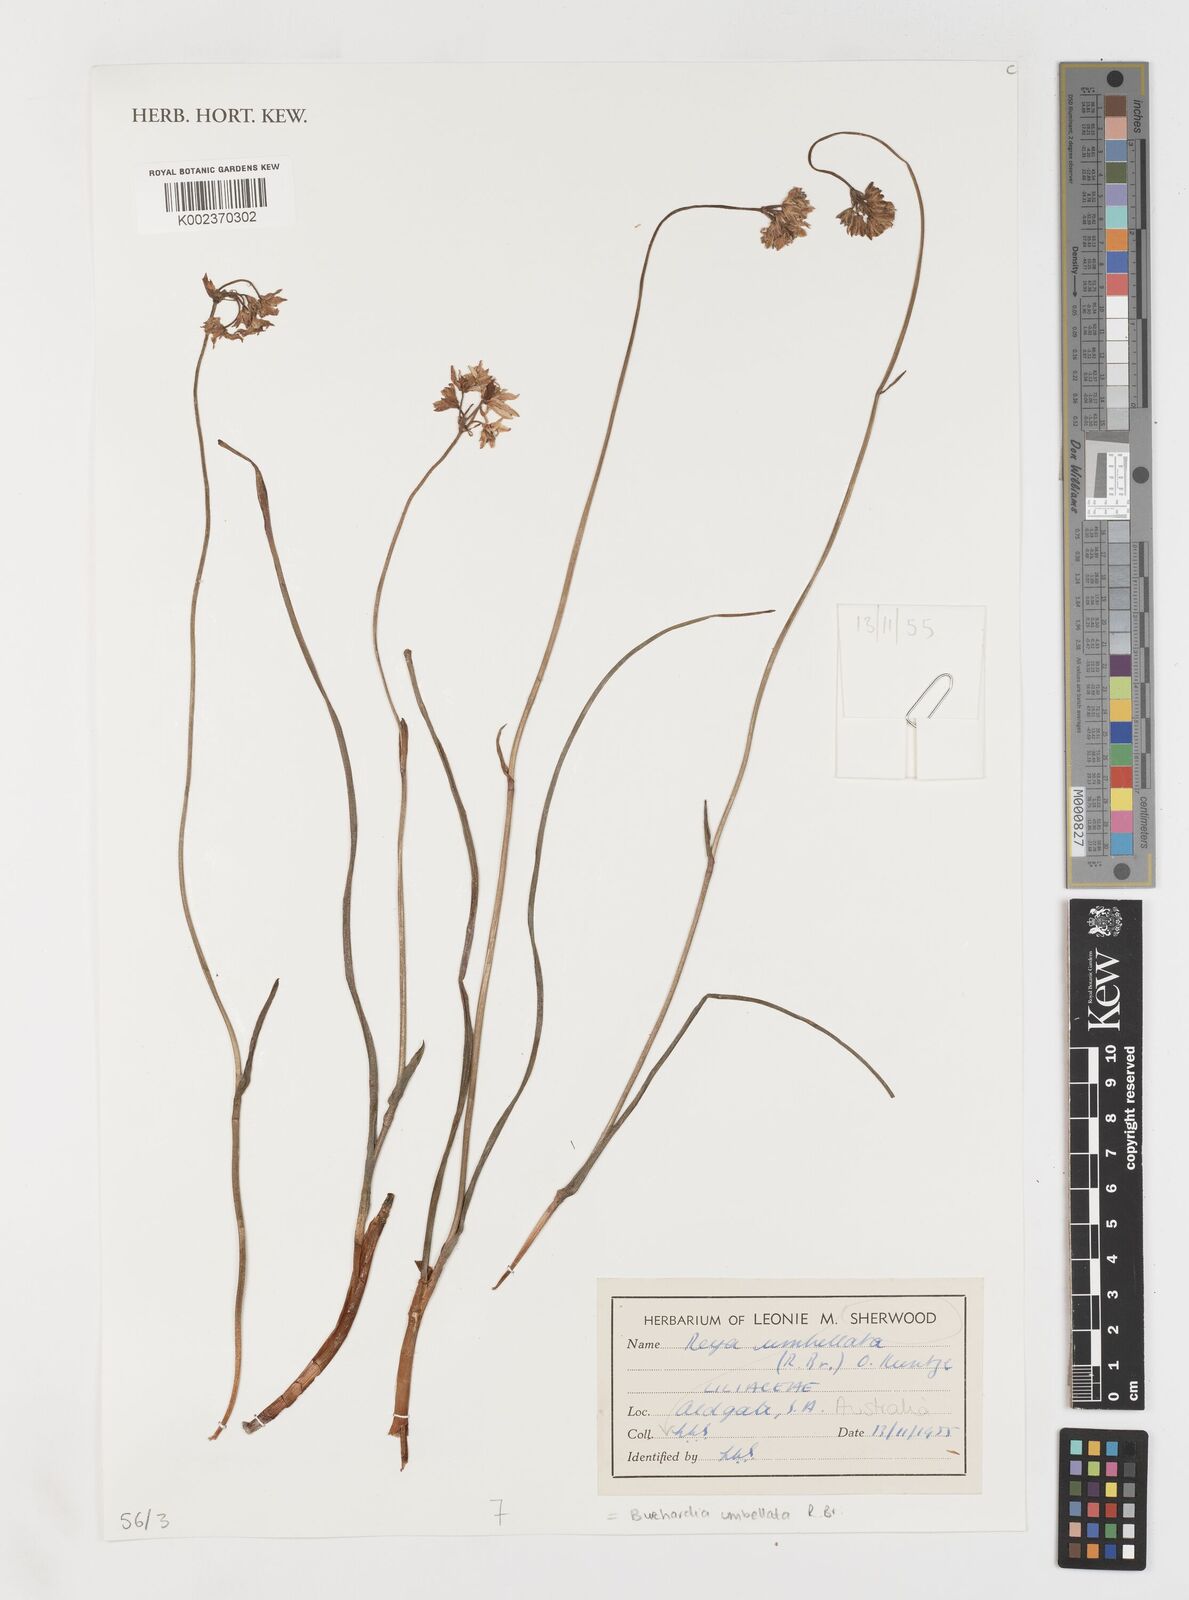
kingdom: Plantae
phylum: Tracheophyta
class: Liliopsida
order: Liliales
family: Colchicaceae
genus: Burchardia
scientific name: Burchardia umbellata
